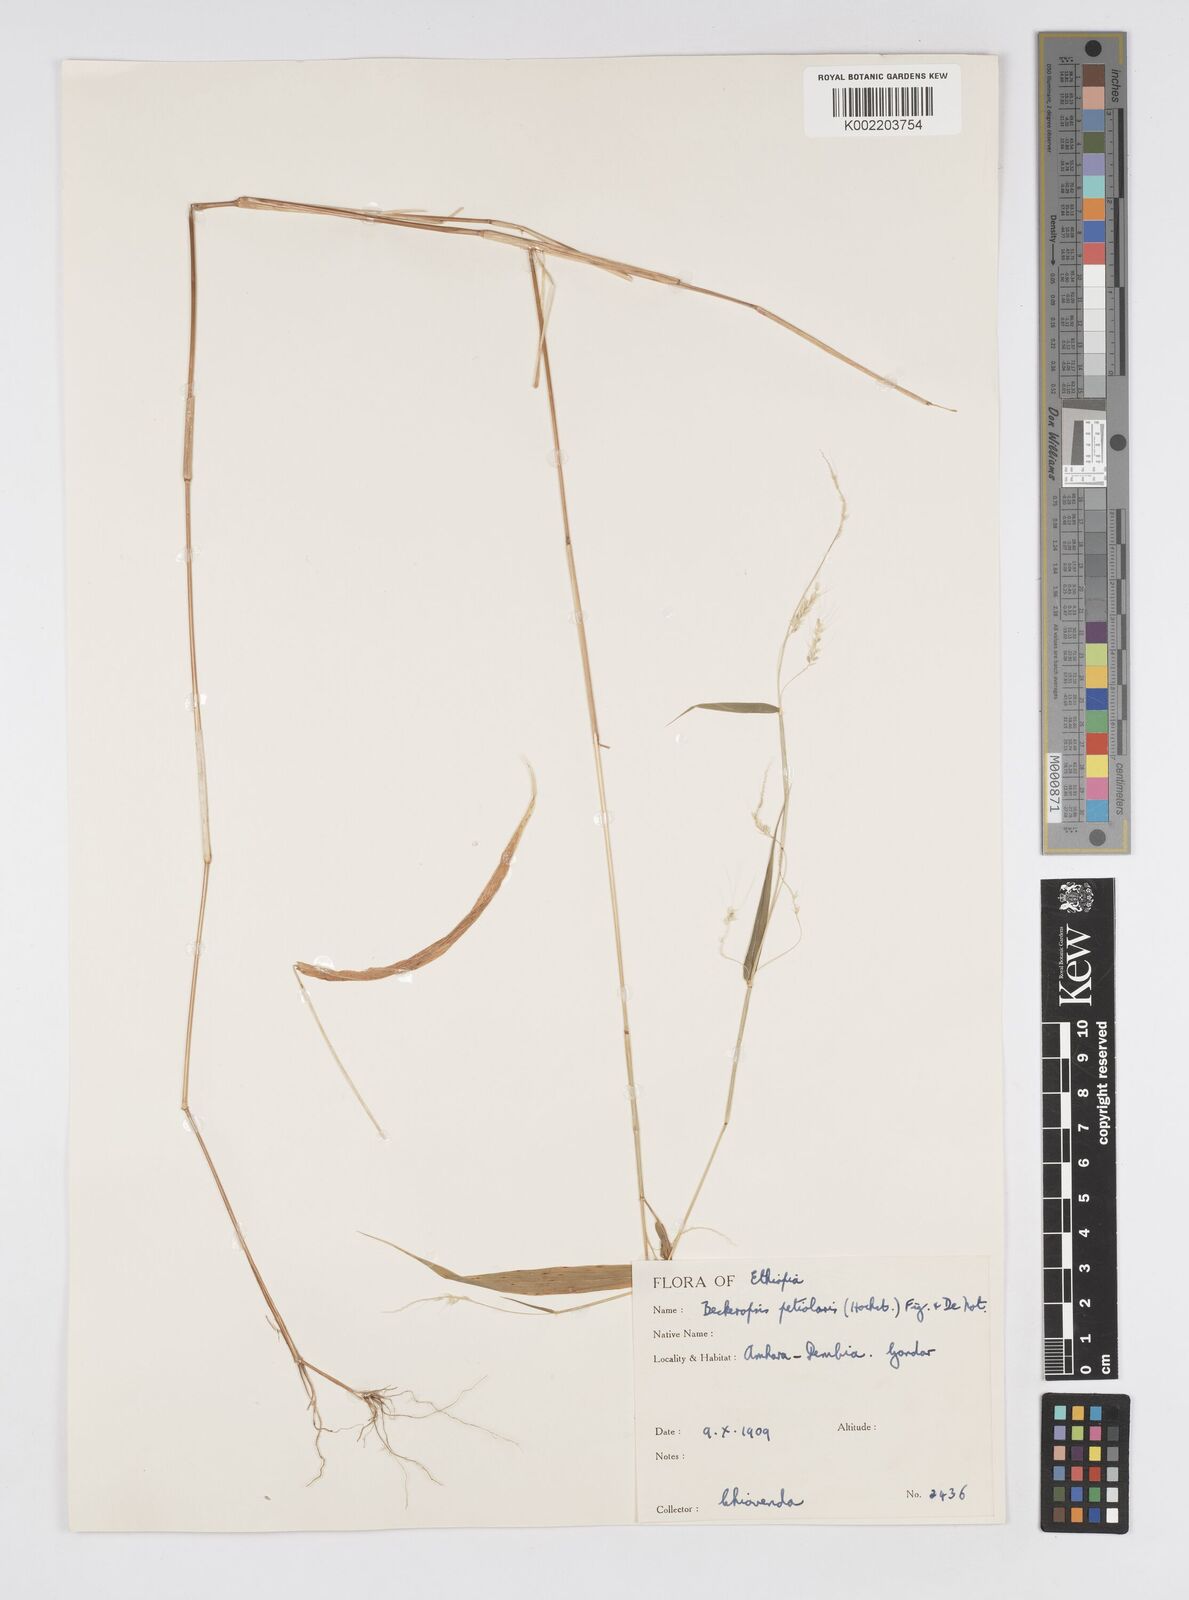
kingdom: Plantae
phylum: Tracheophyta
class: Liliopsida
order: Poales
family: Poaceae
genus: Cenchrus
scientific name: Cenchrus petiolaris
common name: Grass
